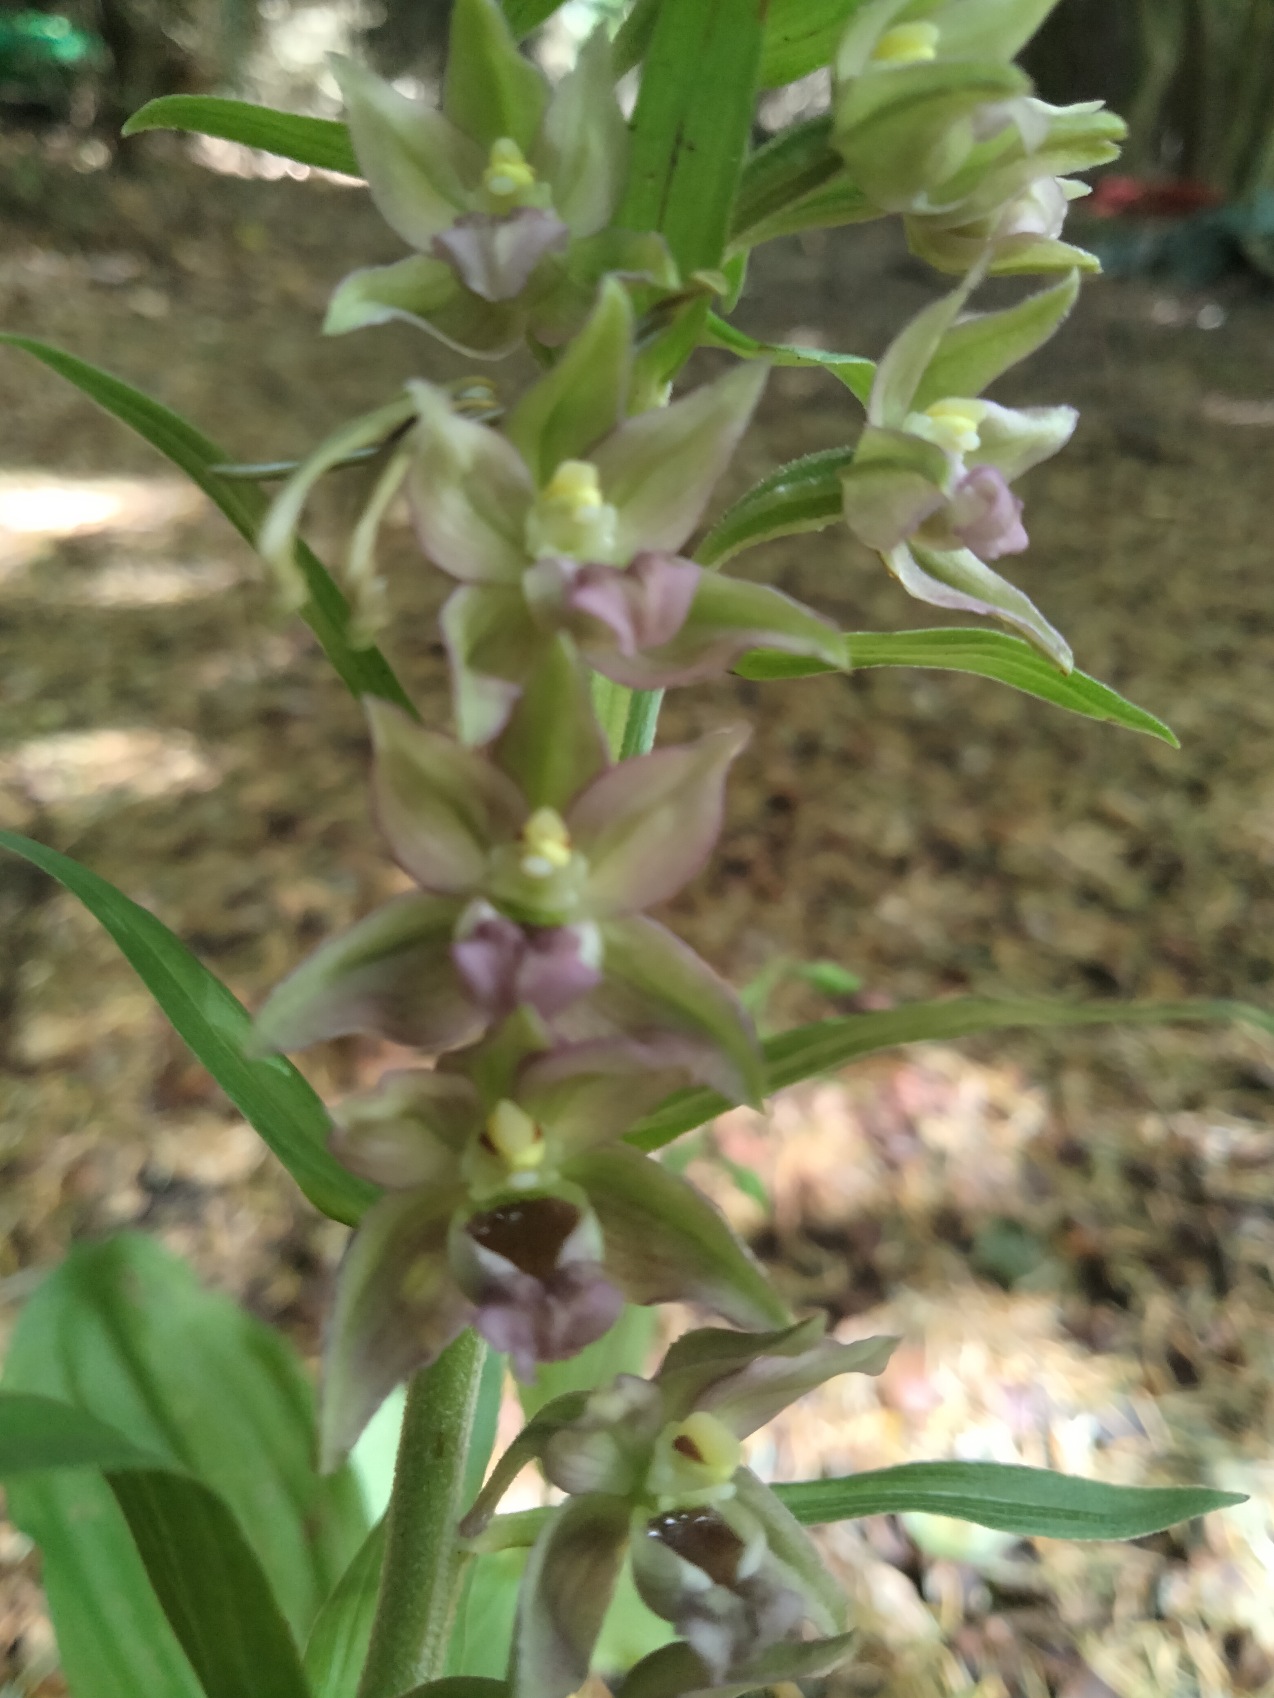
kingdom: Plantae
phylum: Tracheophyta
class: Liliopsida
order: Asparagales
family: Orchidaceae
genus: Epipactis
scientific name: Epipactis helleborine
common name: Skov-hullæbe
